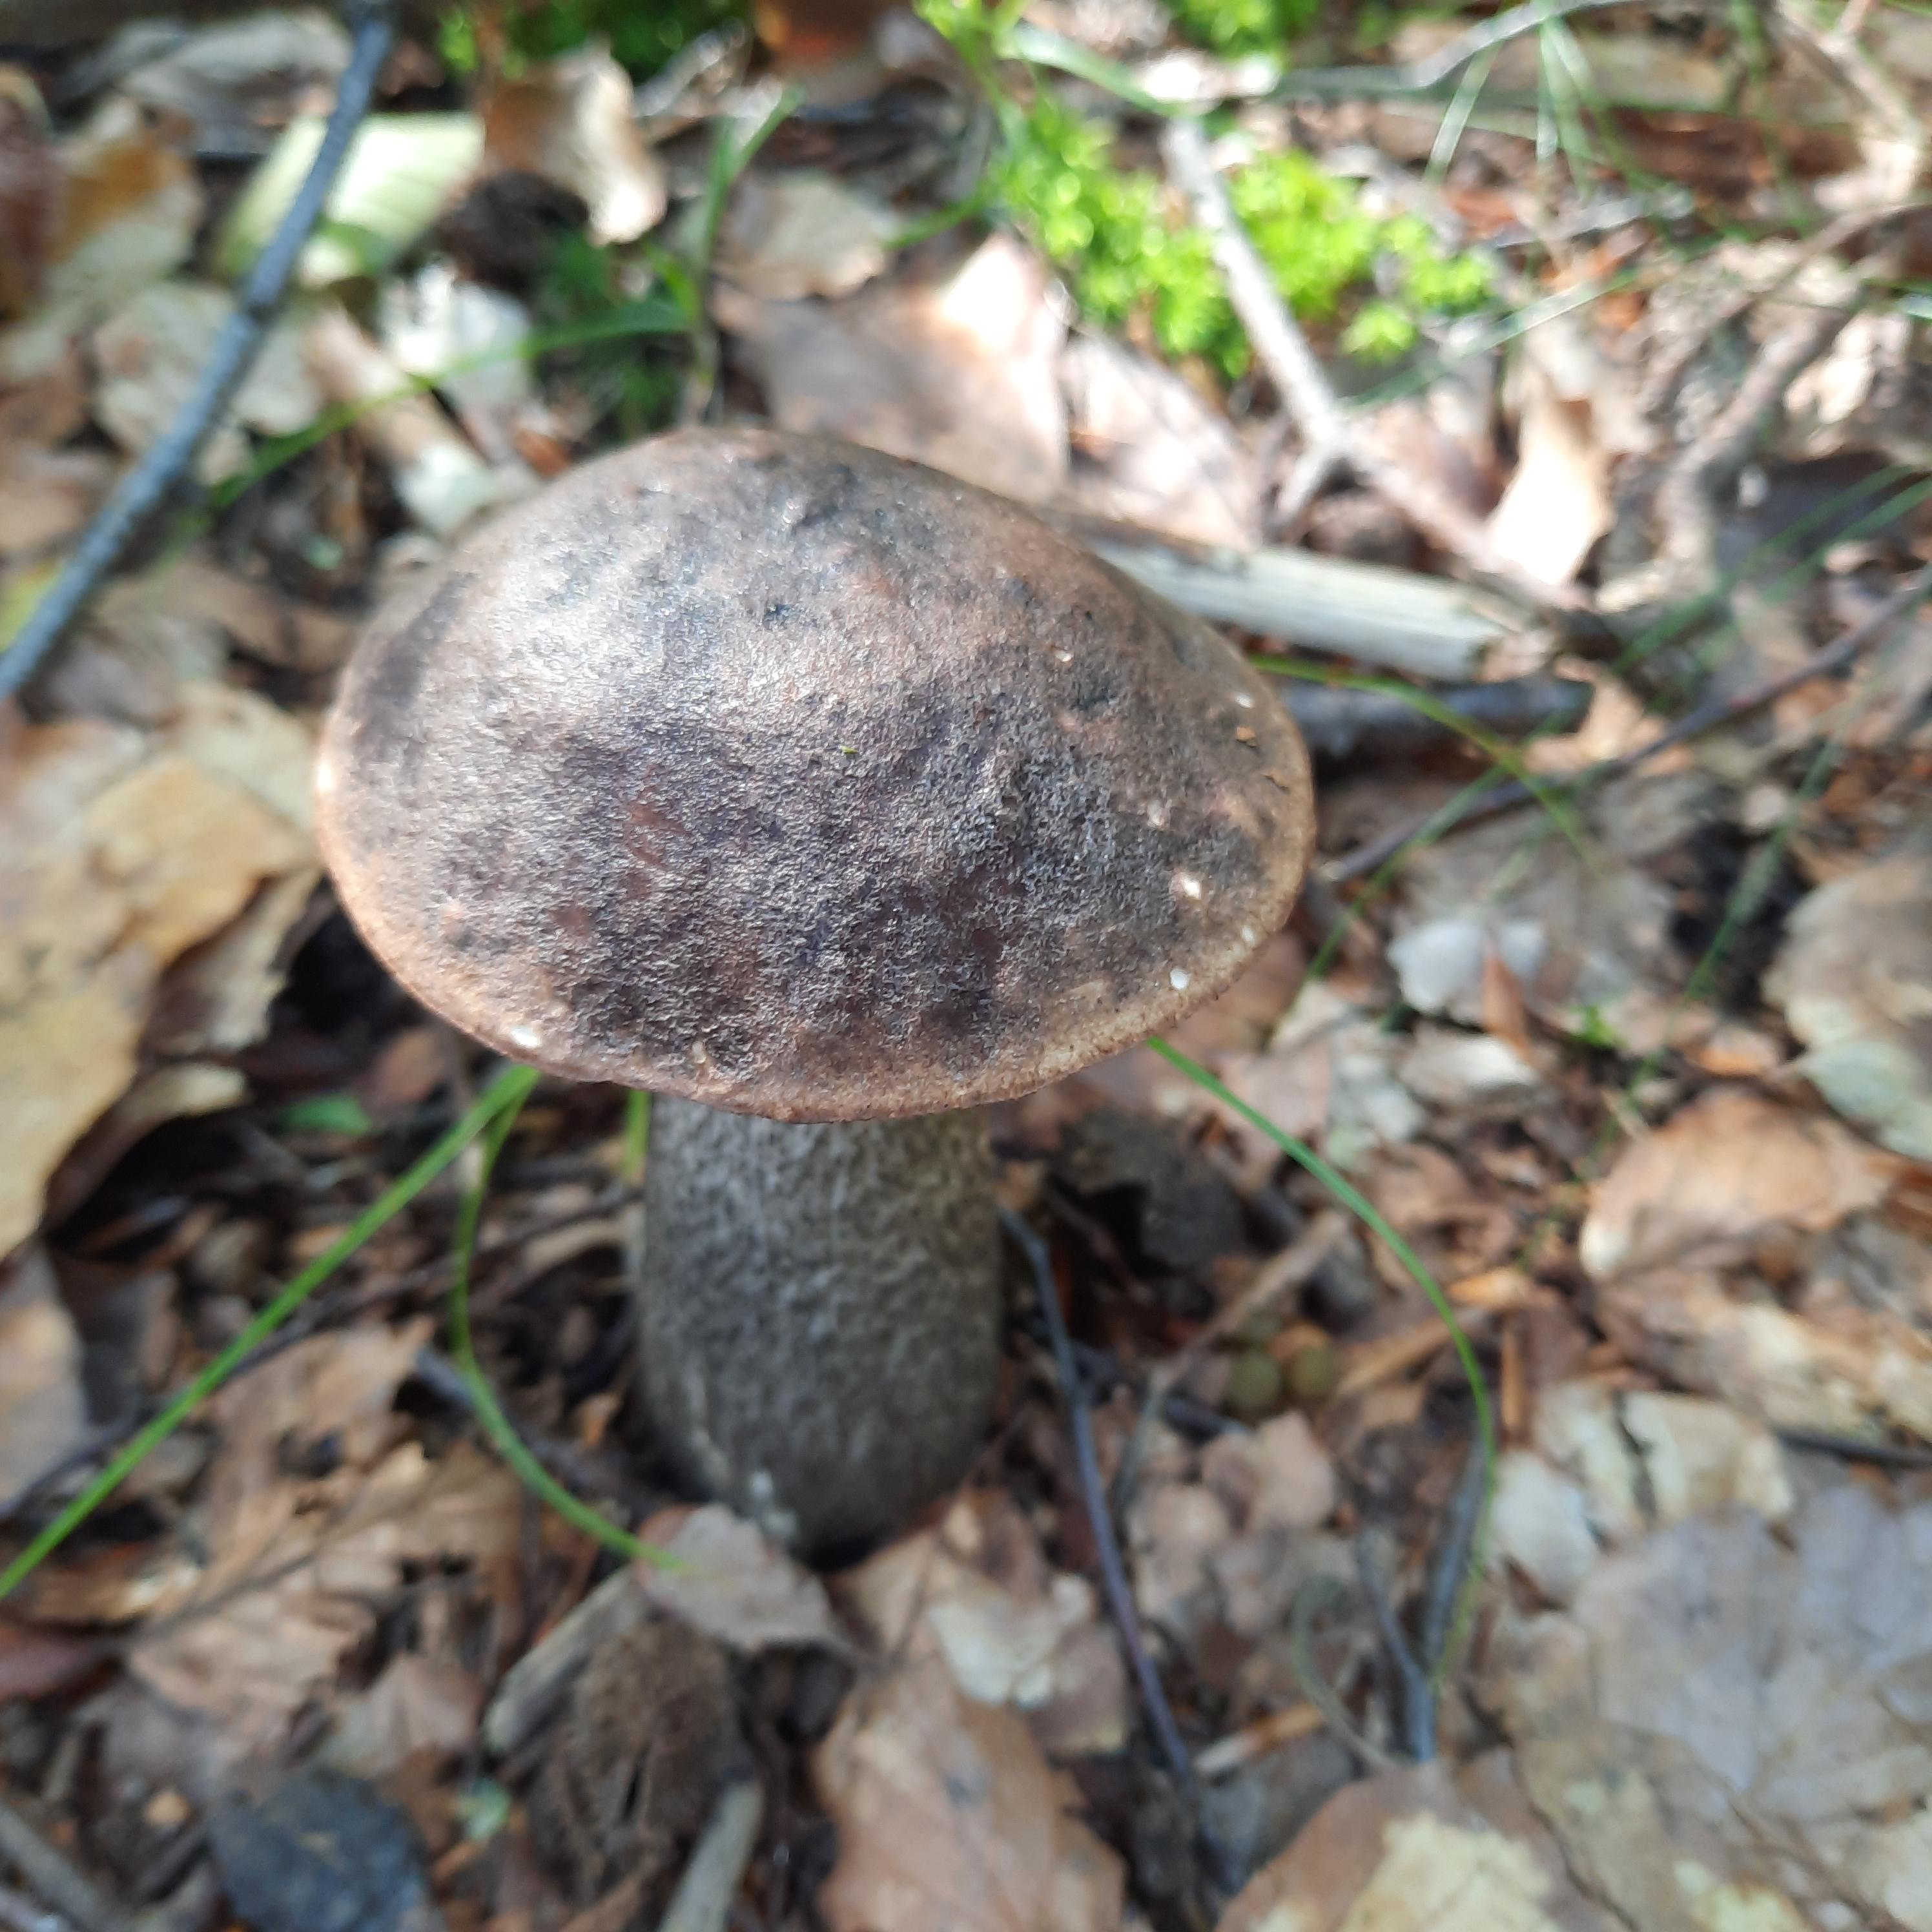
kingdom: Fungi
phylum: Basidiomycota
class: Agaricomycetes
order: Boletales
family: Boletaceae
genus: Leccinellum
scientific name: Leccinellum
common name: skælrørhat
